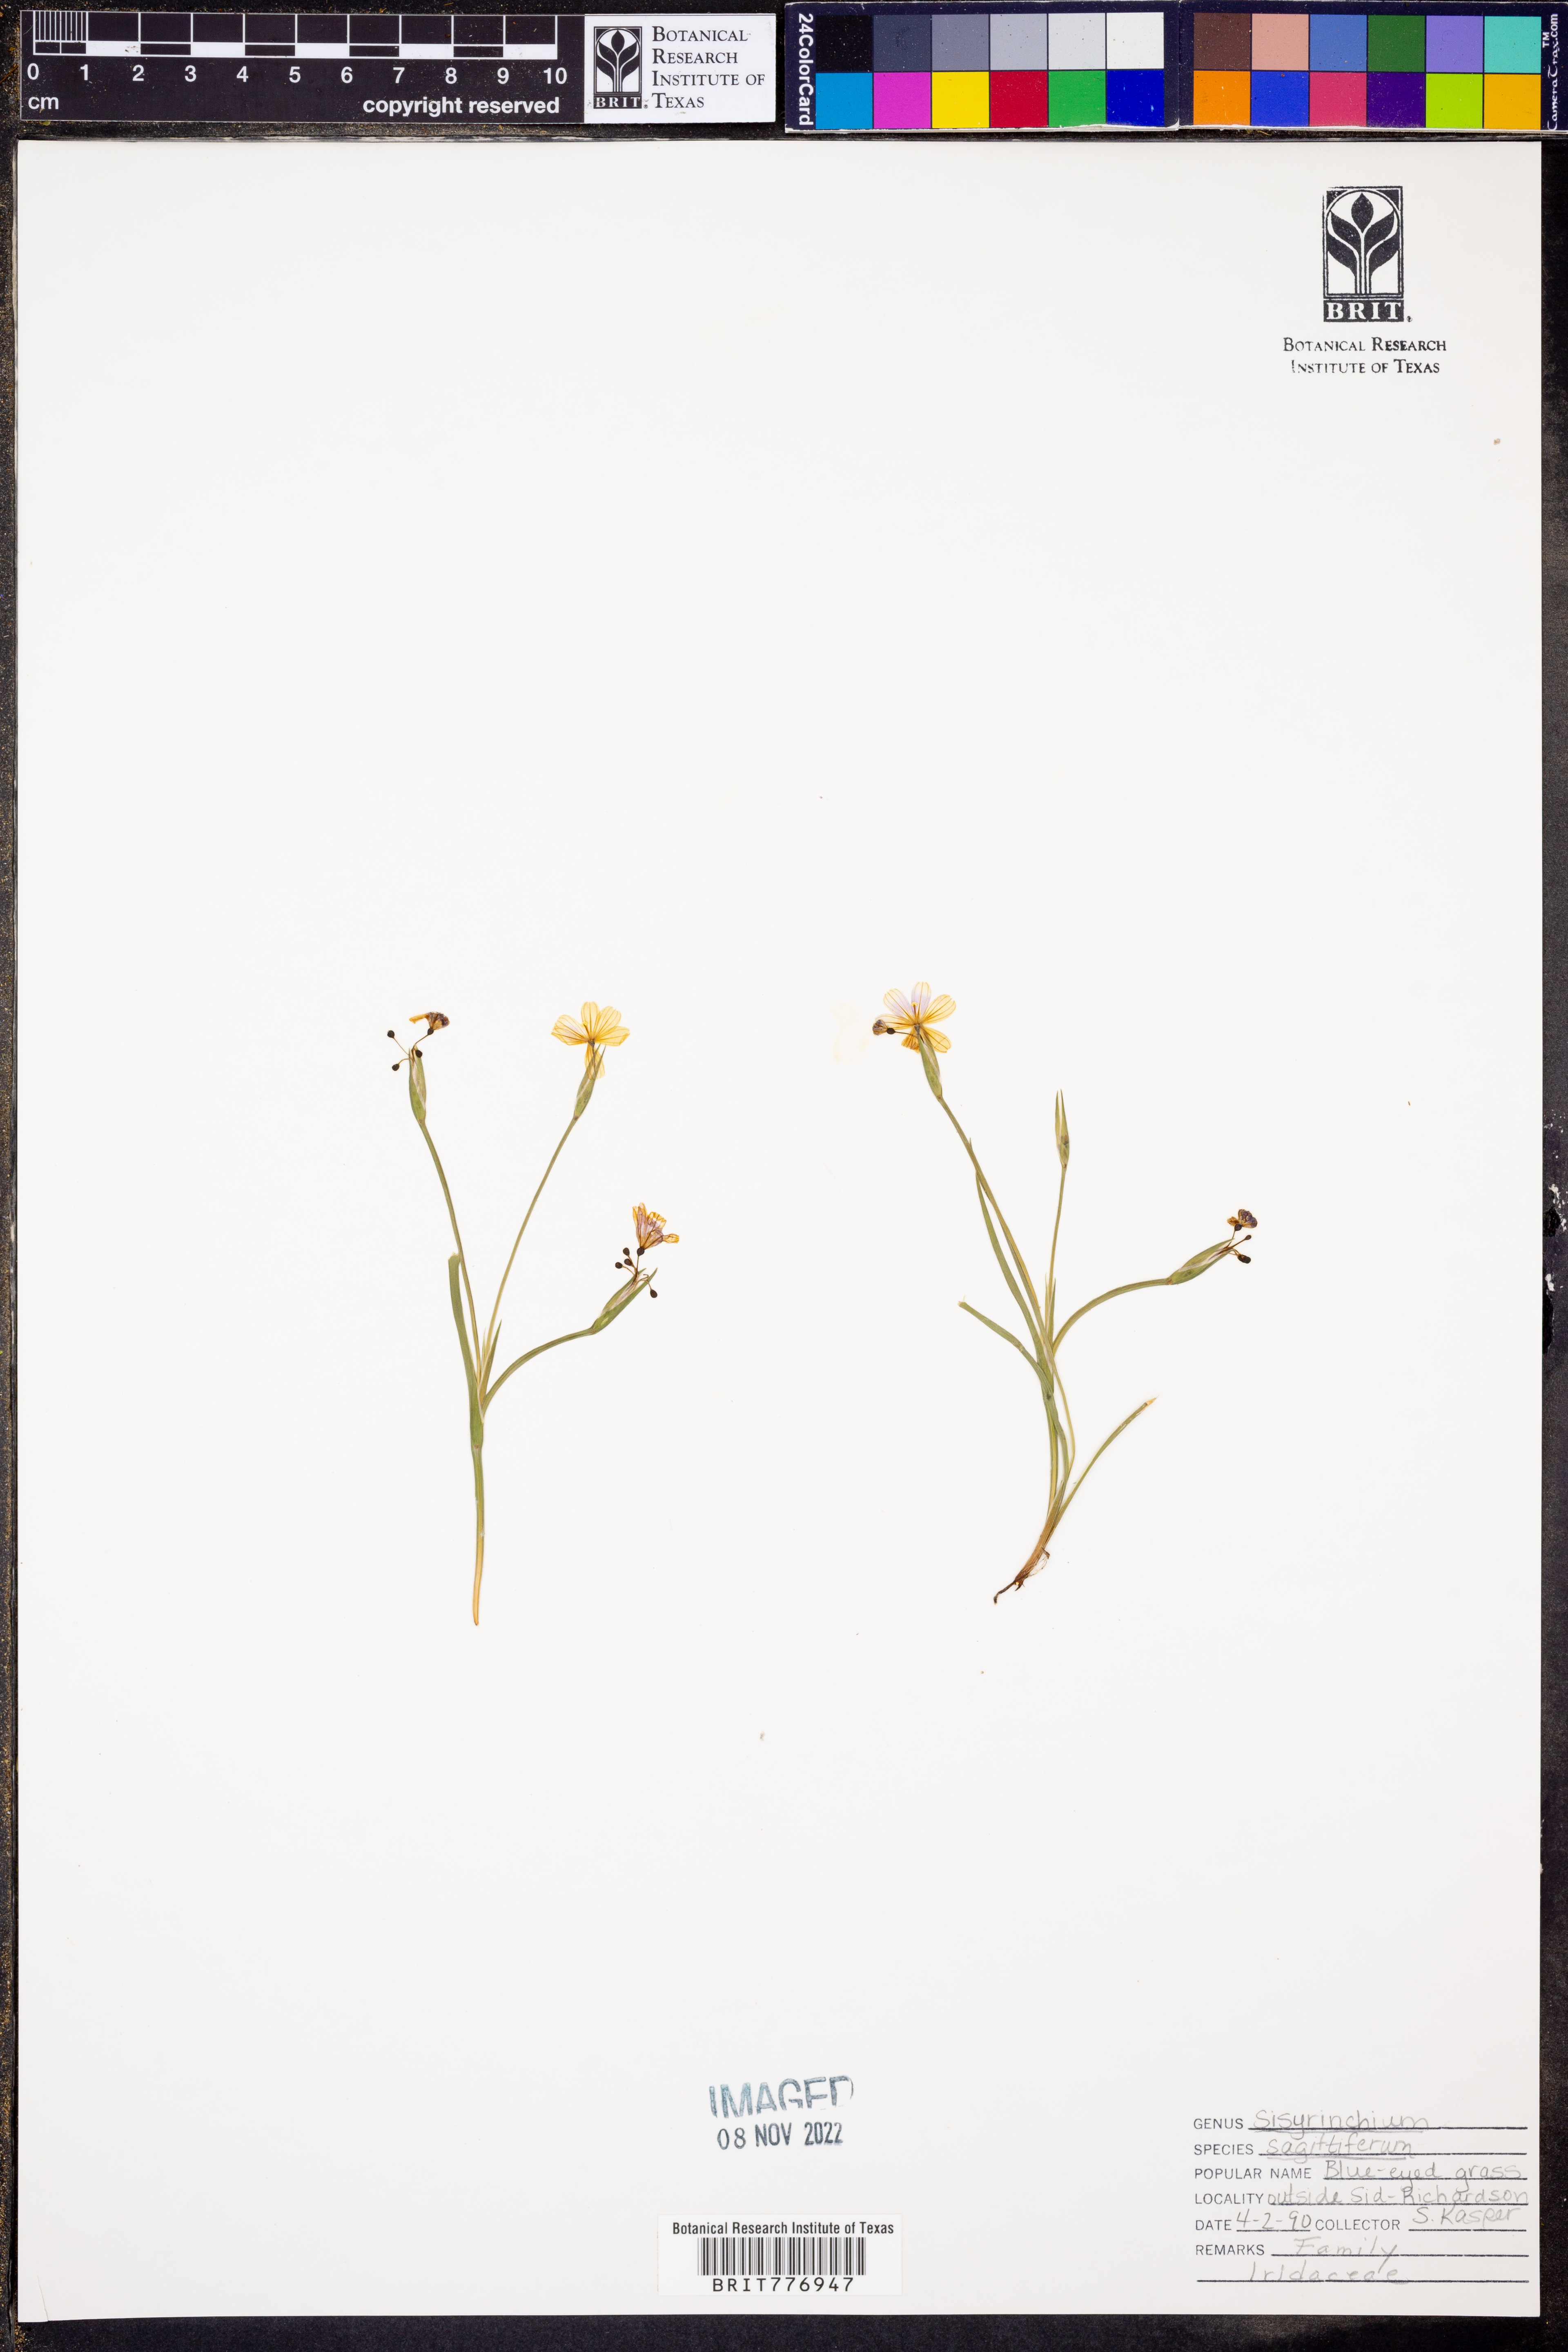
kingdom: Plantae
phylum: Tracheophyta
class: Liliopsida
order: Asparagales
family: Iridaceae
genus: Sisyrinchium
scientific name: Sisyrinchium sagittiferum
